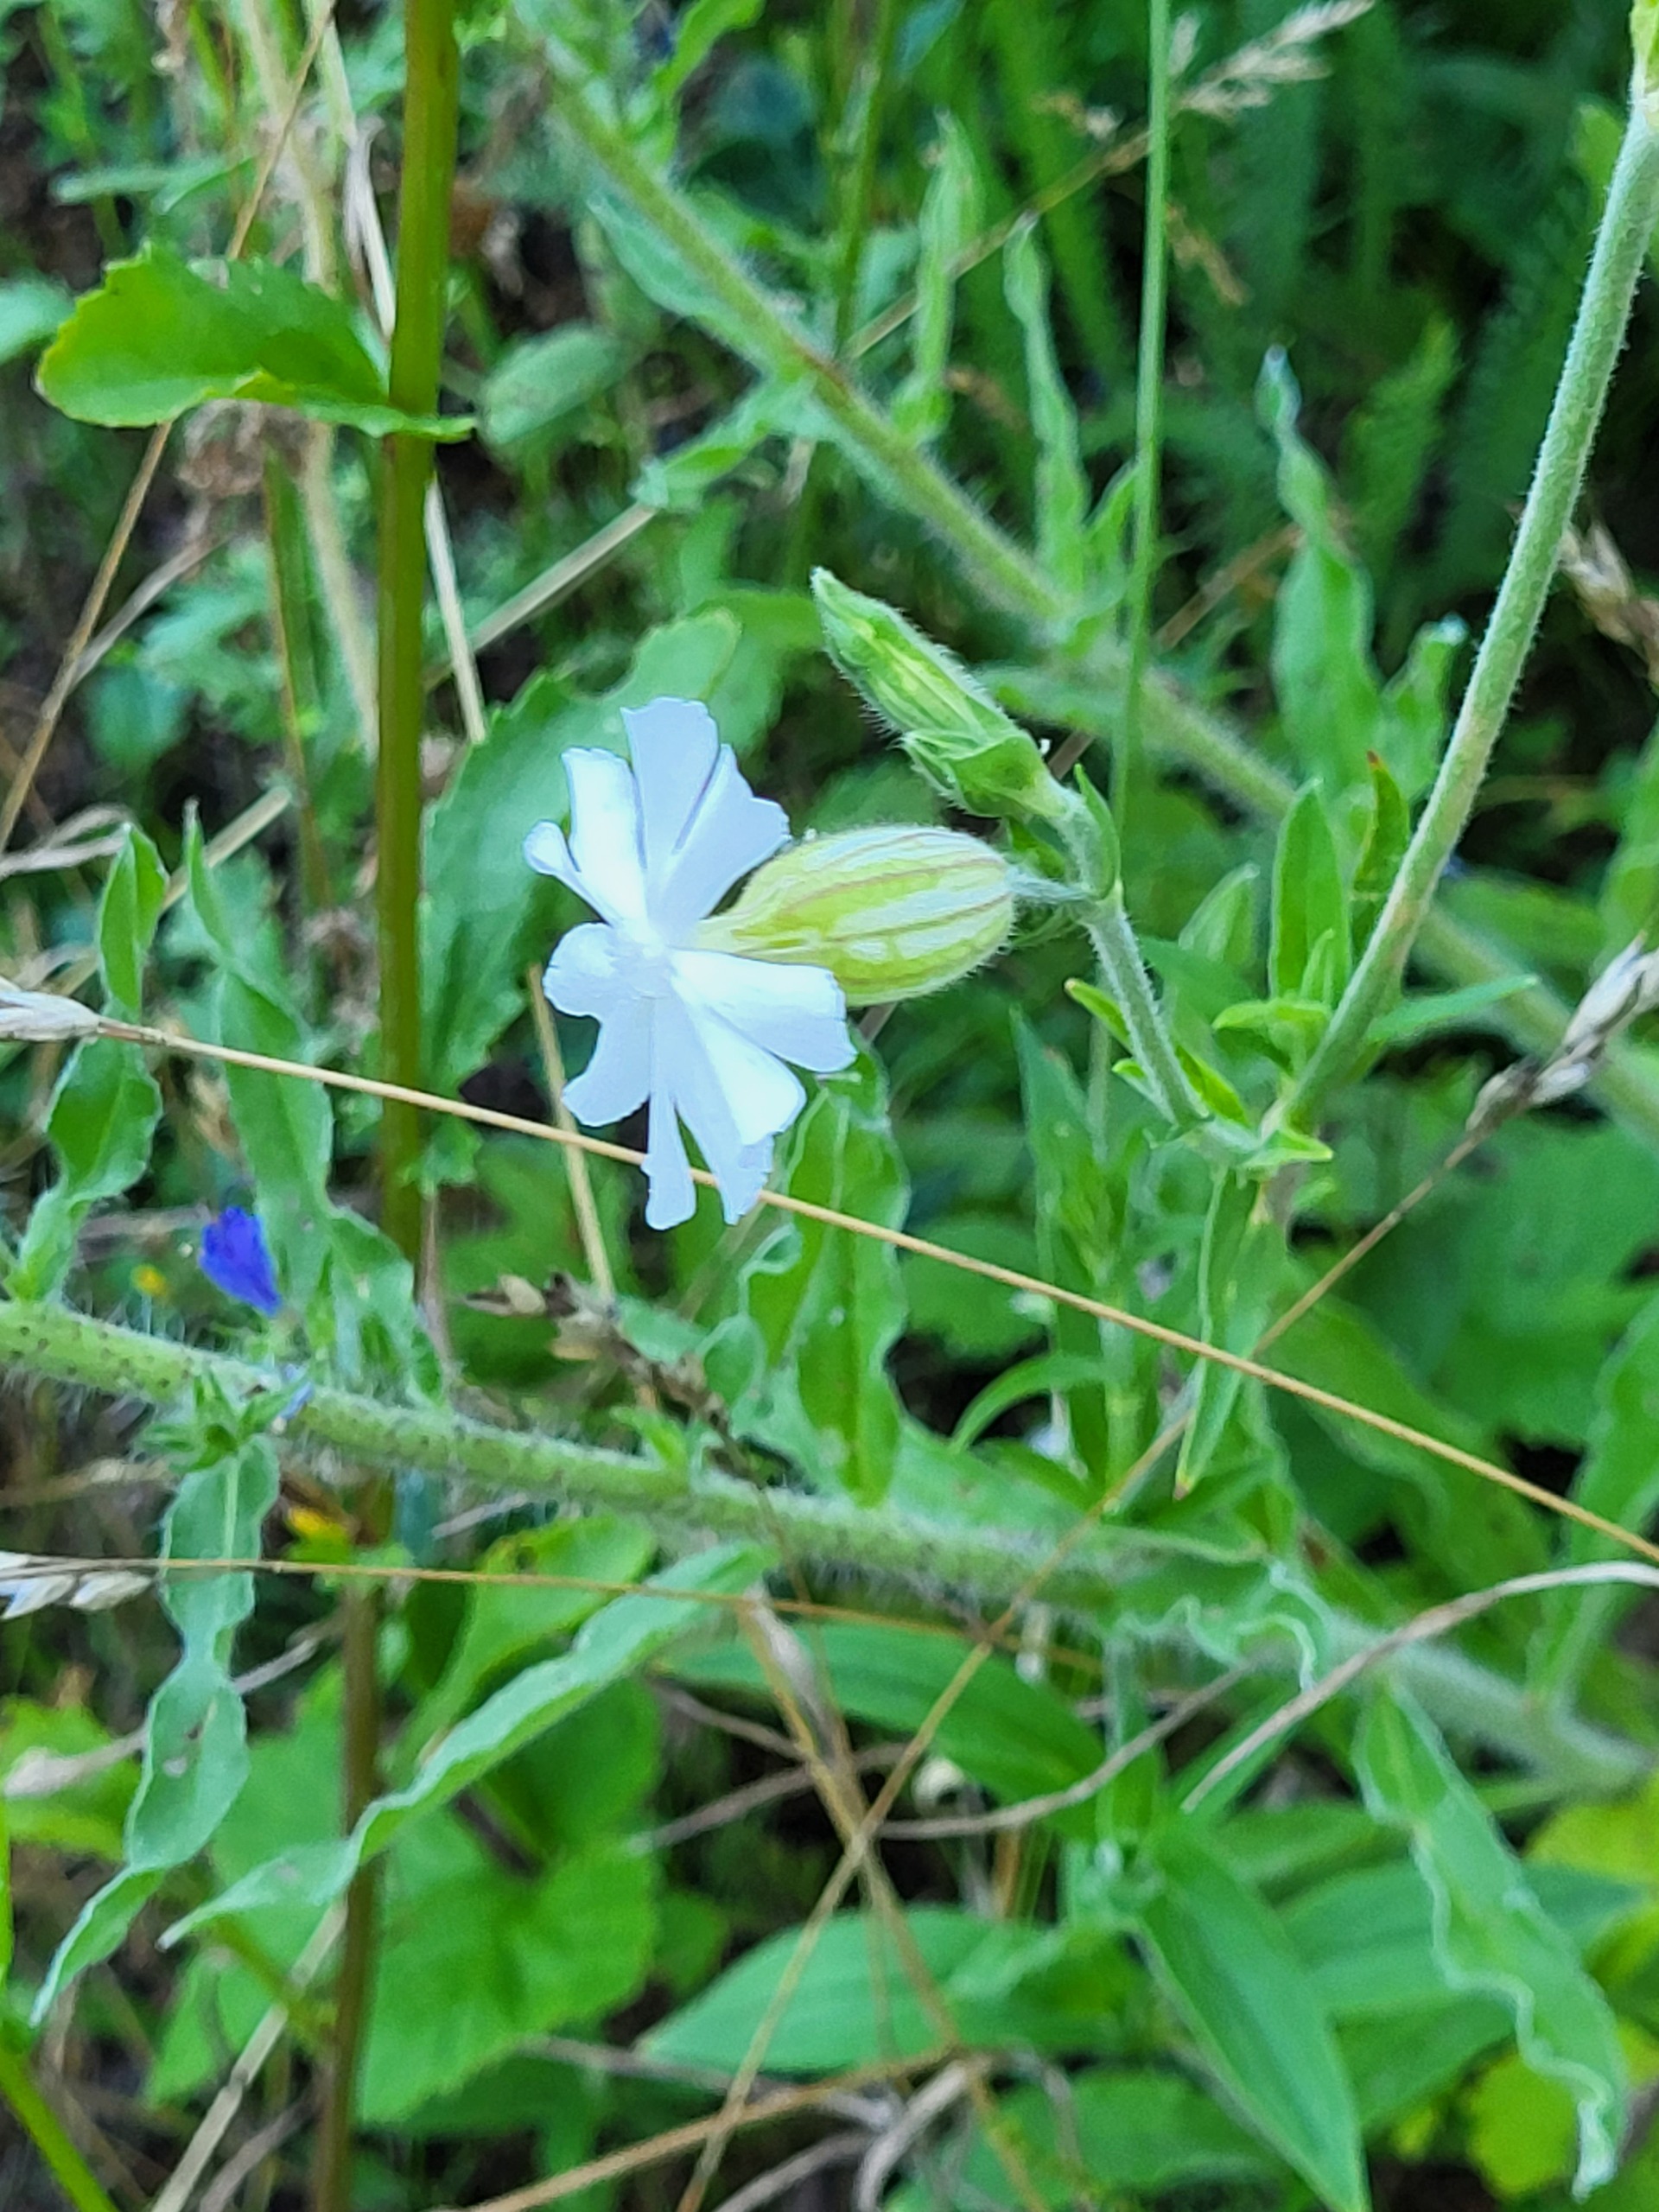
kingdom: Plantae
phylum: Tracheophyta
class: Magnoliopsida
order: Caryophyllales
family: Caryophyllaceae
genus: Silene
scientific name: Silene latifolia
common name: Aftenpragtstjerne
